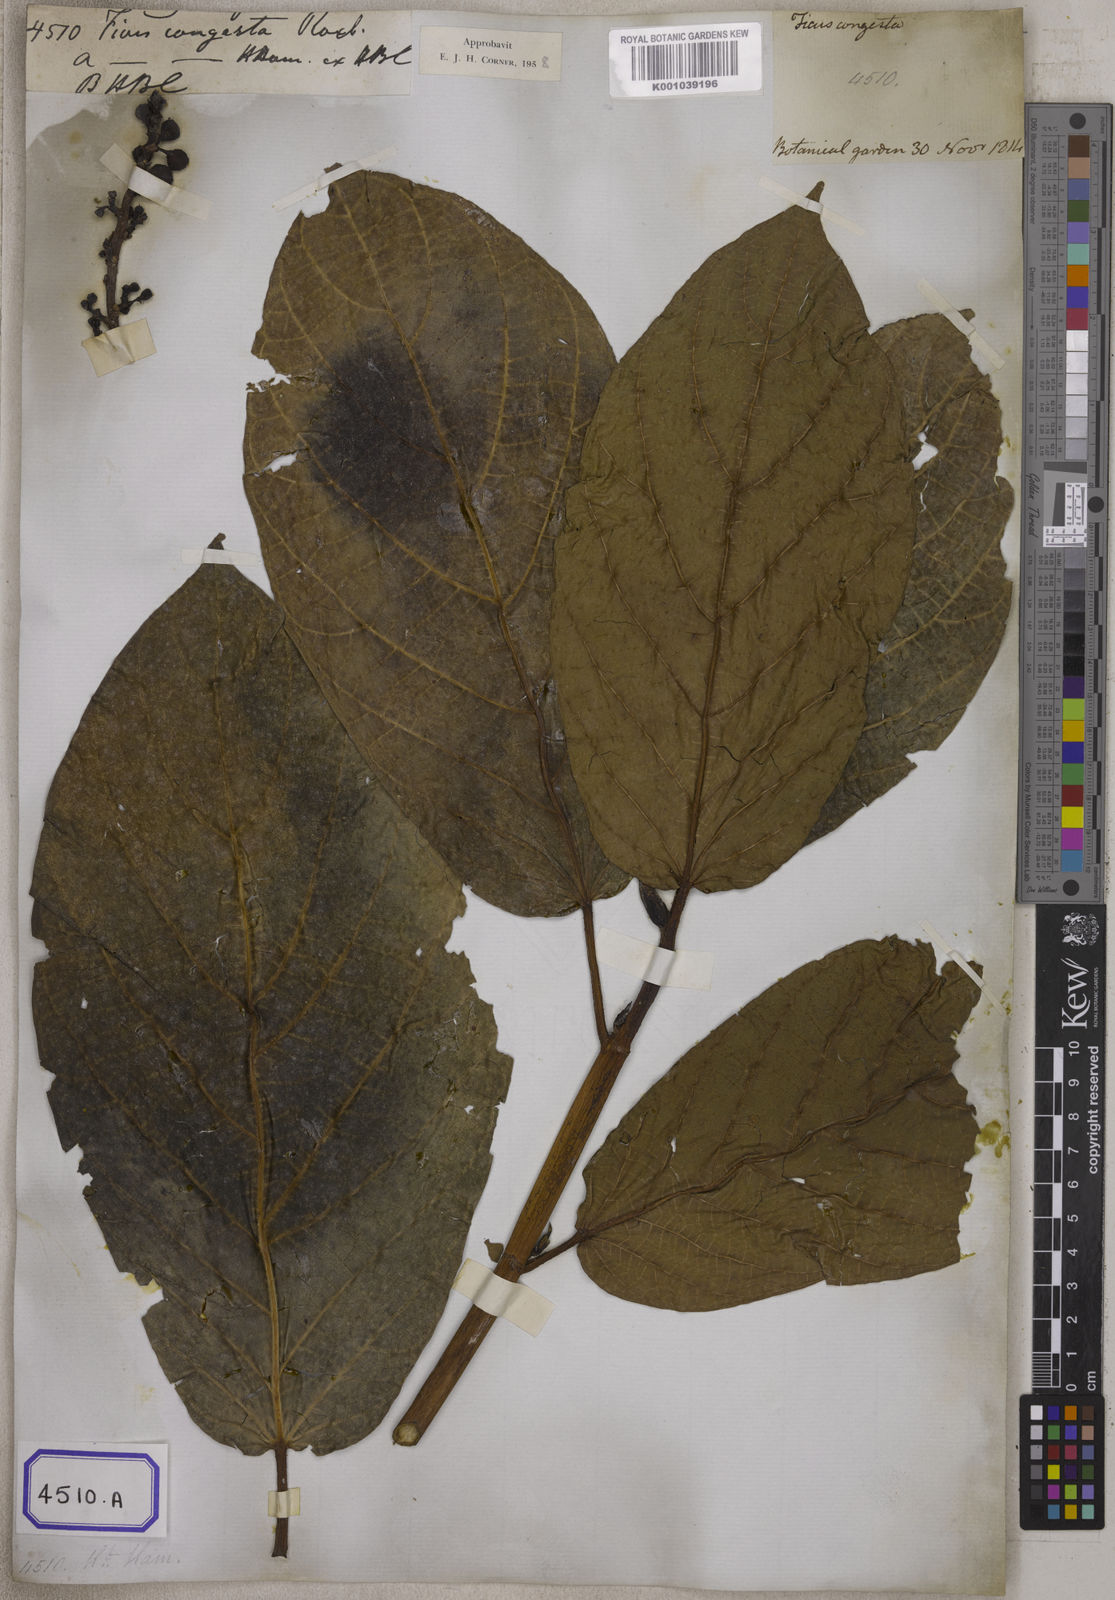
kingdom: Plantae
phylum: Tracheophyta
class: Magnoliopsida
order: Rosales
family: Moraceae
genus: Ficus
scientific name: Ficus congesta
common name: Cluster fig
